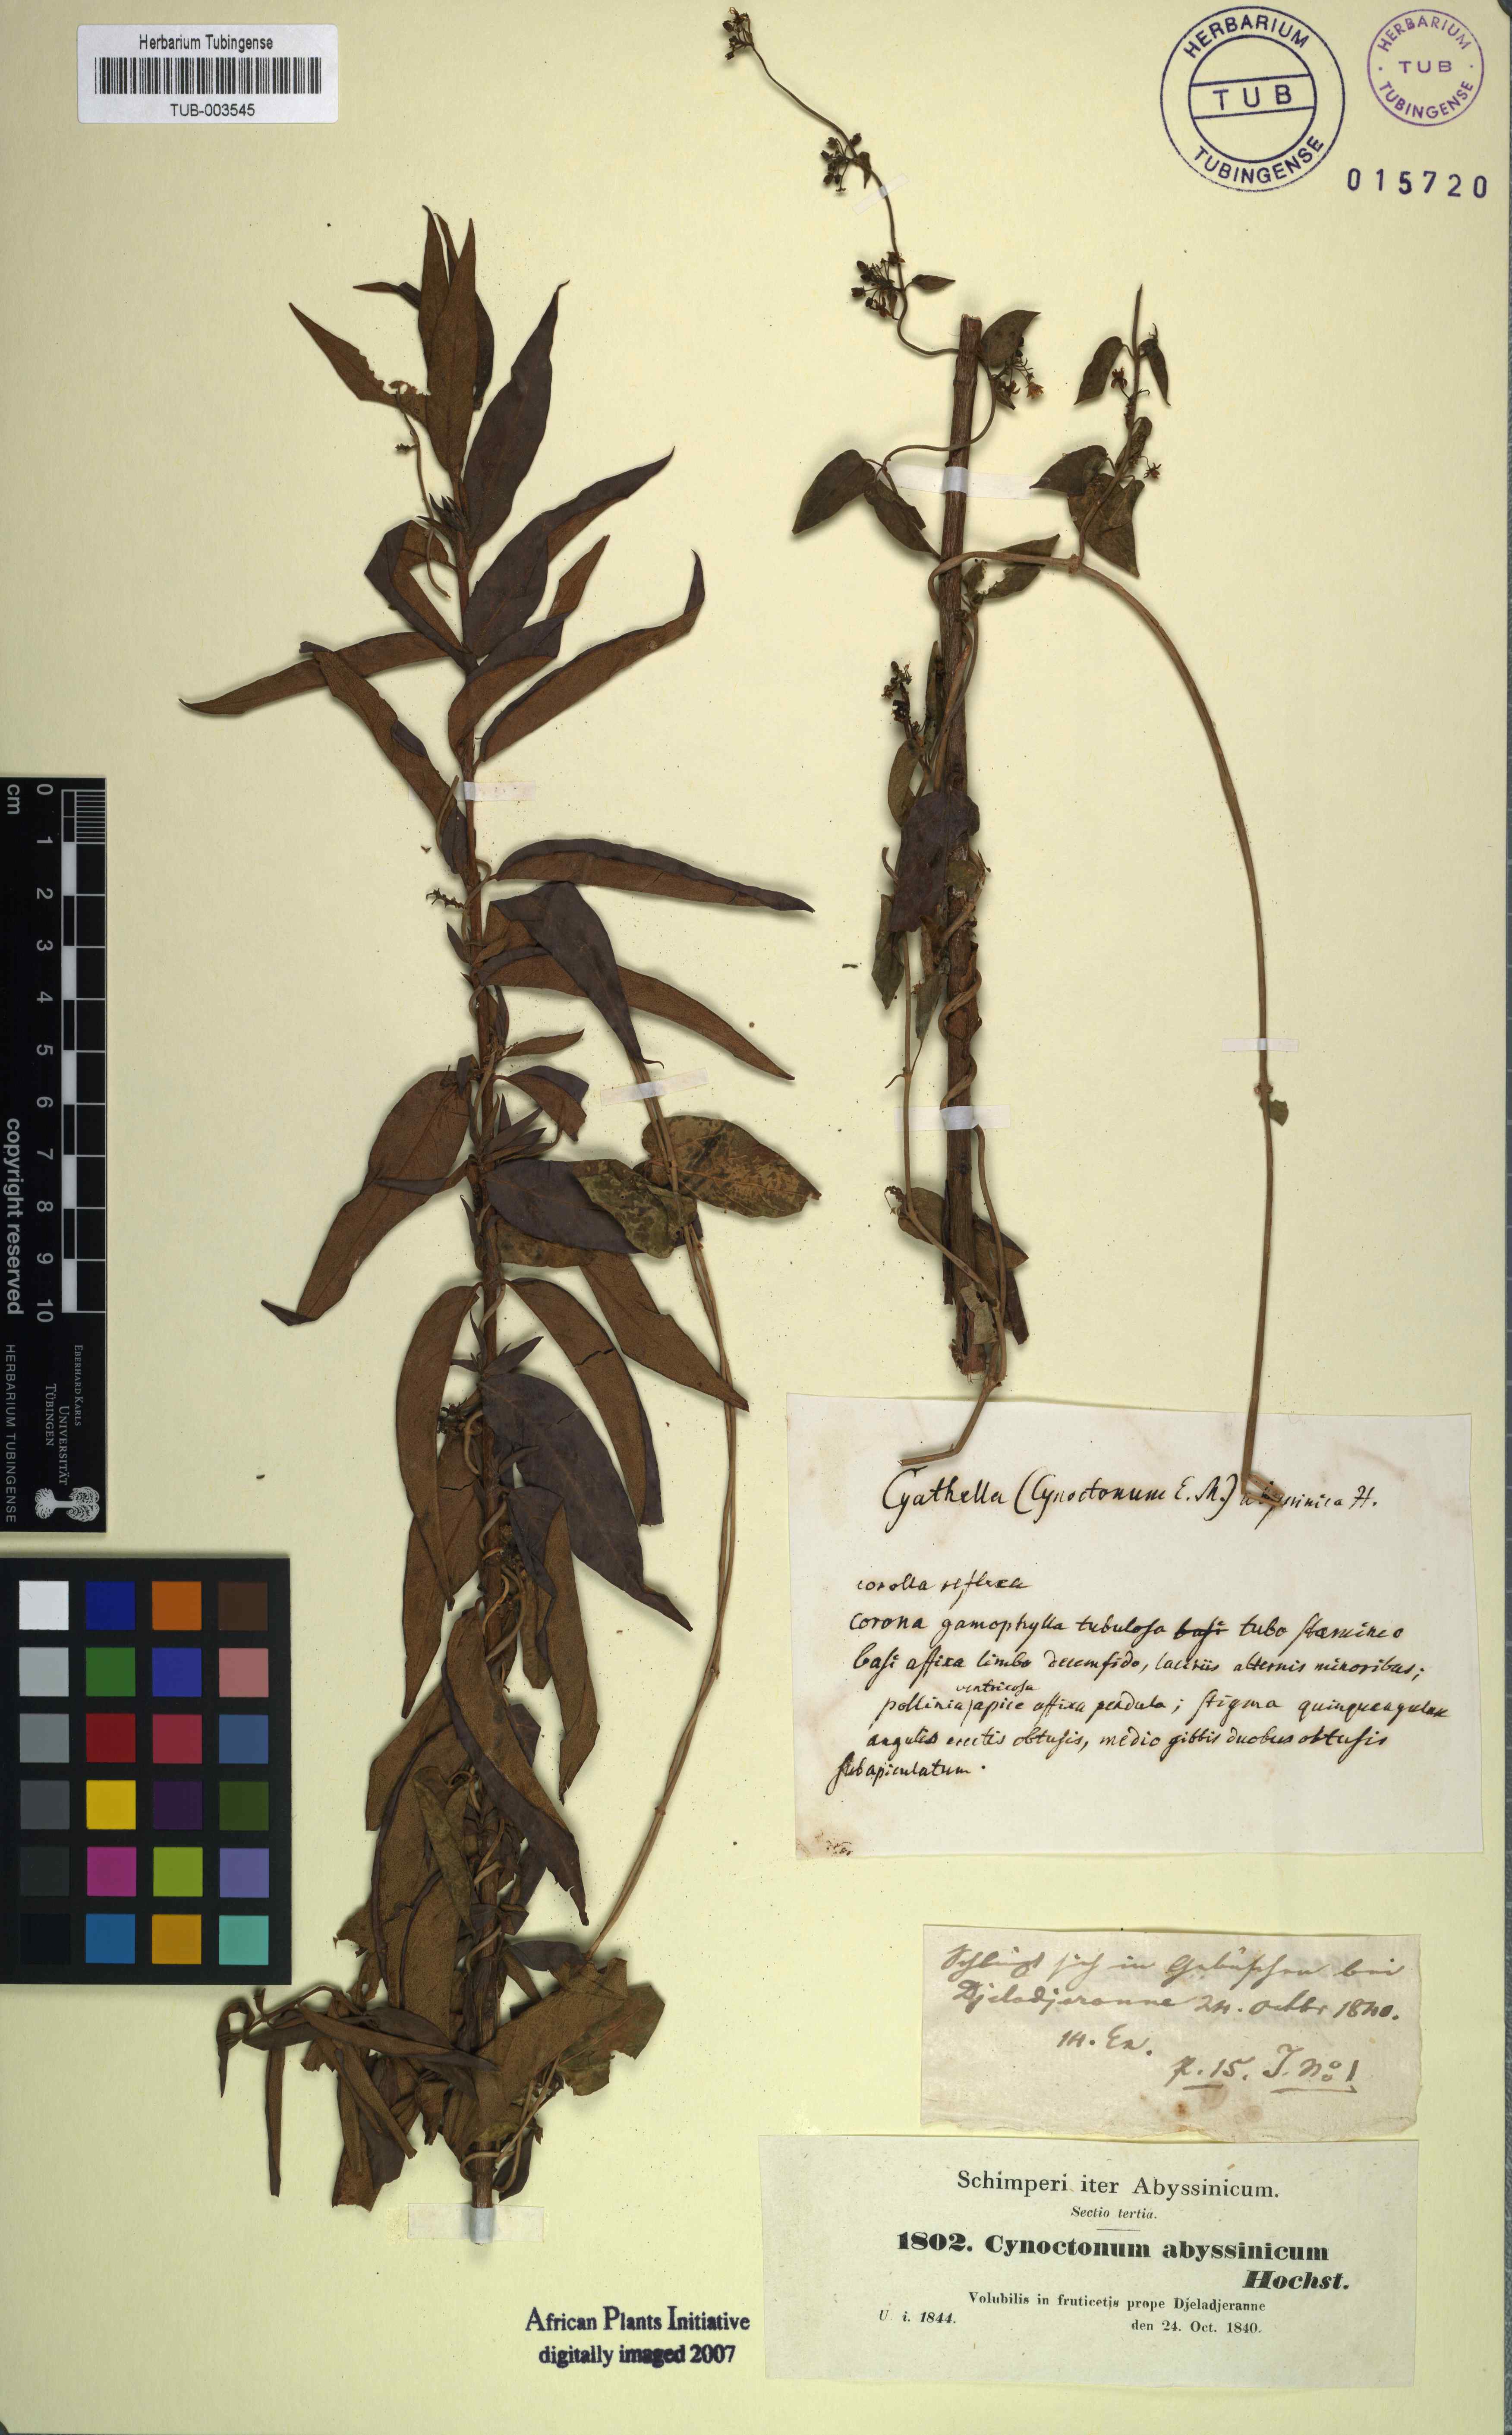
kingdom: Plantae
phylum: Tracheophyta
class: Magnoliopsida
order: Gentianales
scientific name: Gentianales
